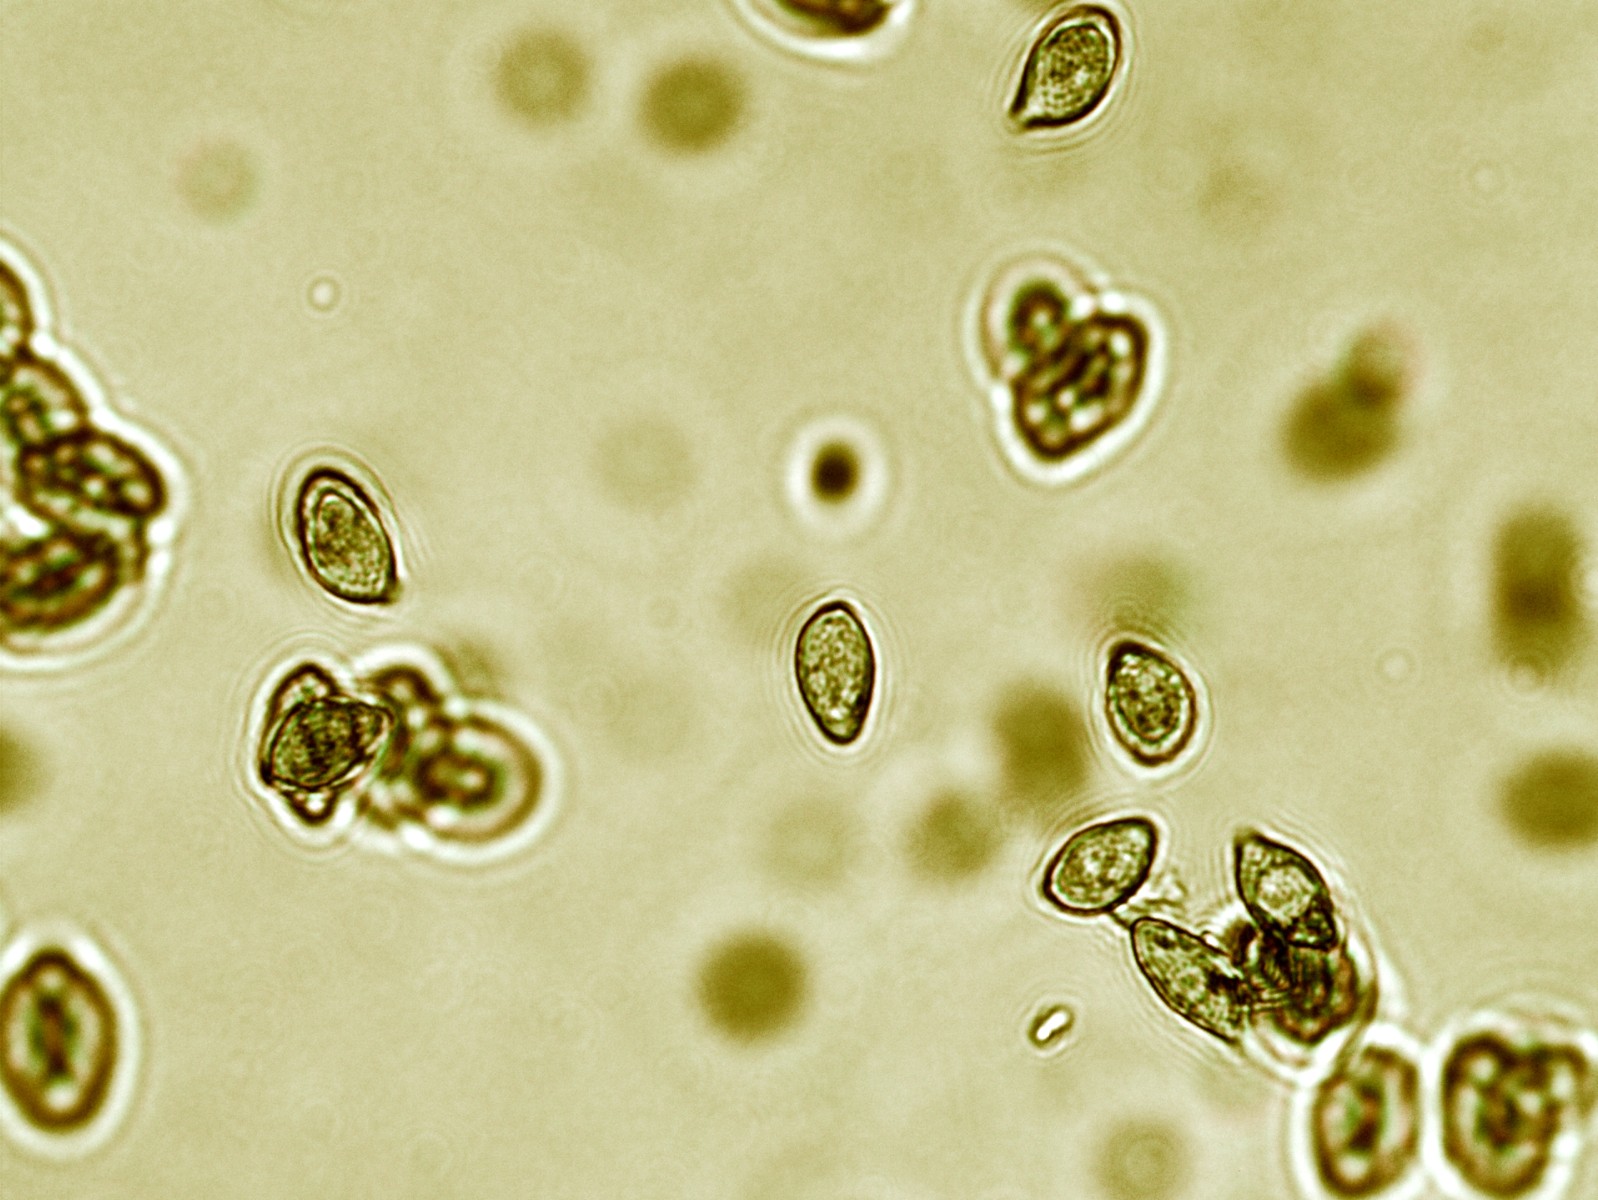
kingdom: Fungi
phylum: Basidiomycota
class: Agaricomycetes
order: Agaricales
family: Cortinariaceae
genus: Phlegmacium
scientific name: Phlegmacium argutum
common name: hvidlig slørhat
